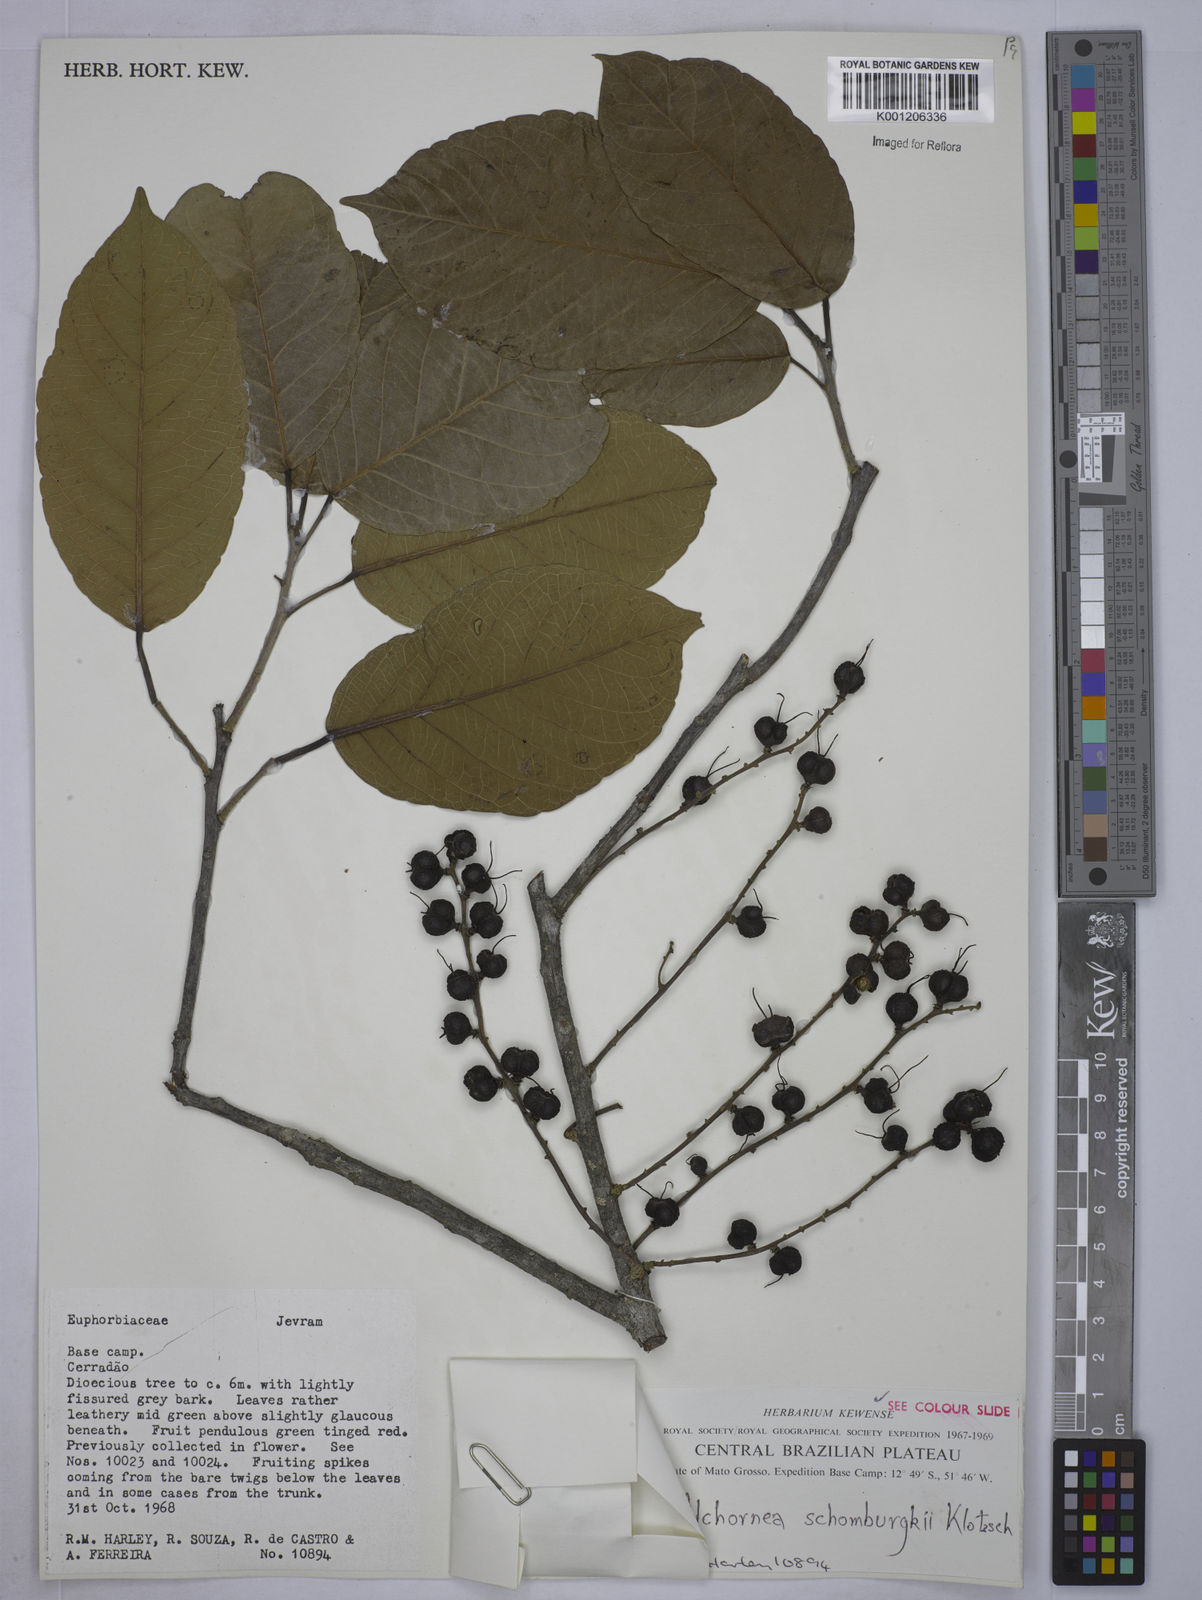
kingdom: Plantae
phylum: Tracheophyta
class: Magnoliopsida
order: Malpighiales
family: Euphorbiaceae
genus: Alchornea
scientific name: Alchornea discolor
